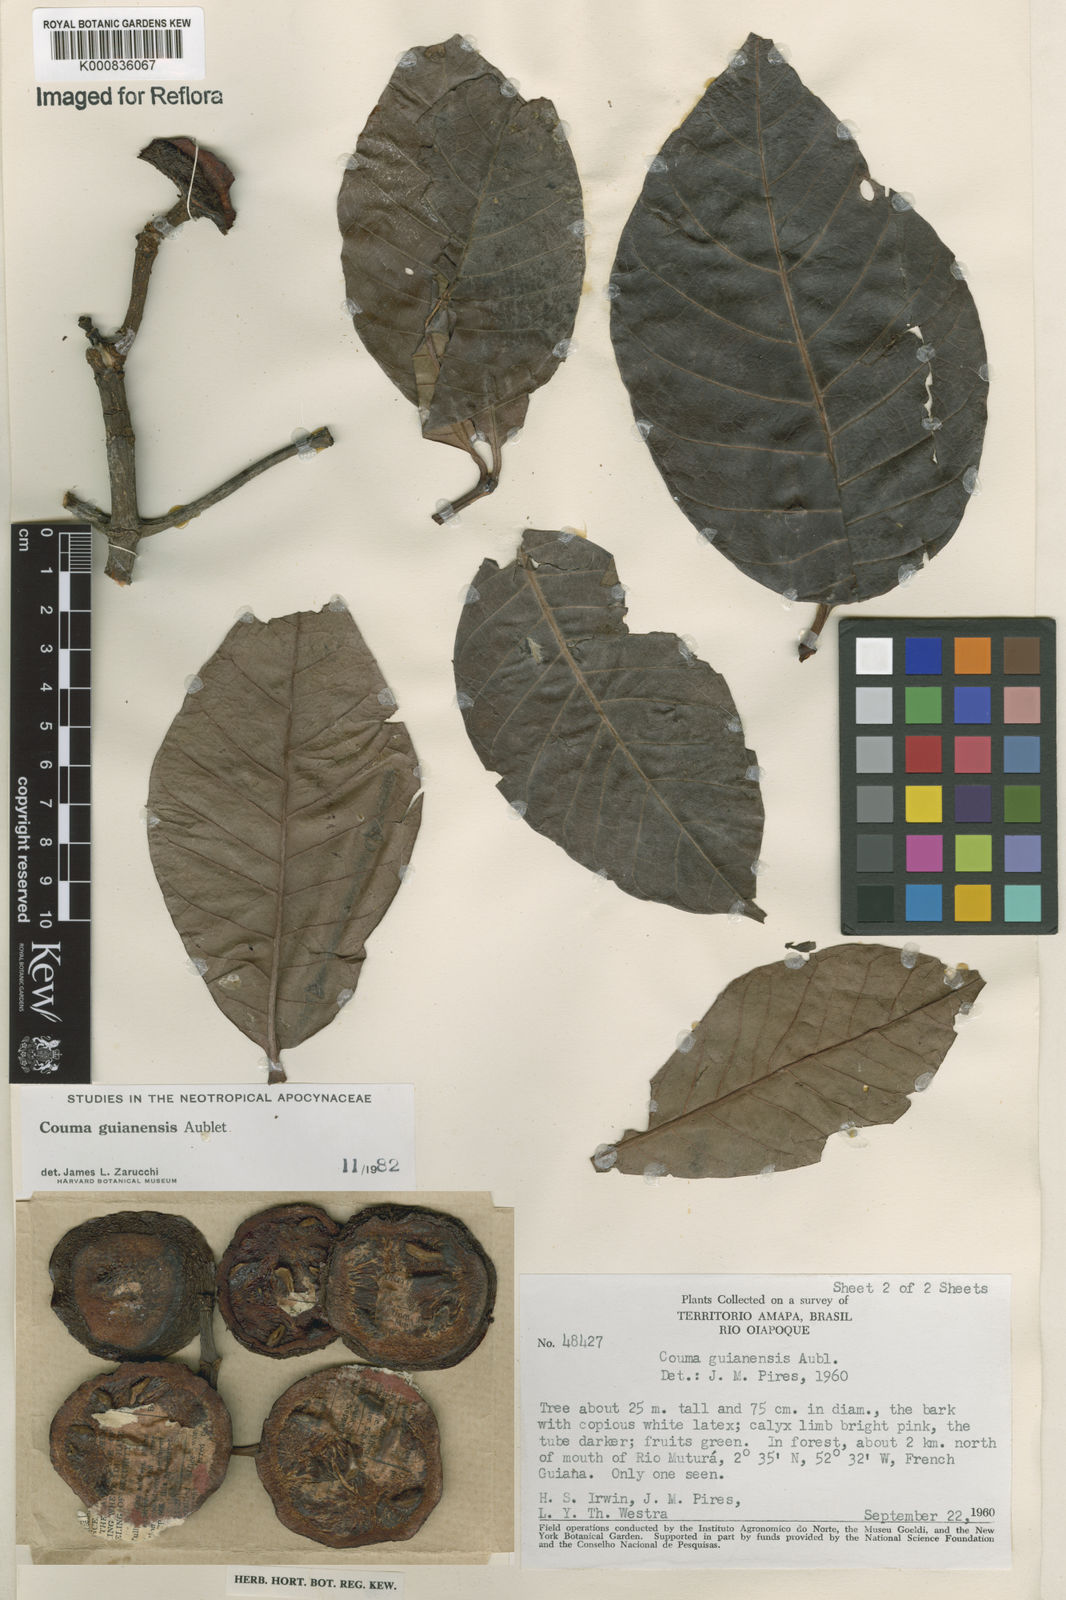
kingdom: Plantae
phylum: Tracheophyta
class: Magnoliopsida
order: Gentianales
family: Apocynaceae
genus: Couma
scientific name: Couma guianensis
